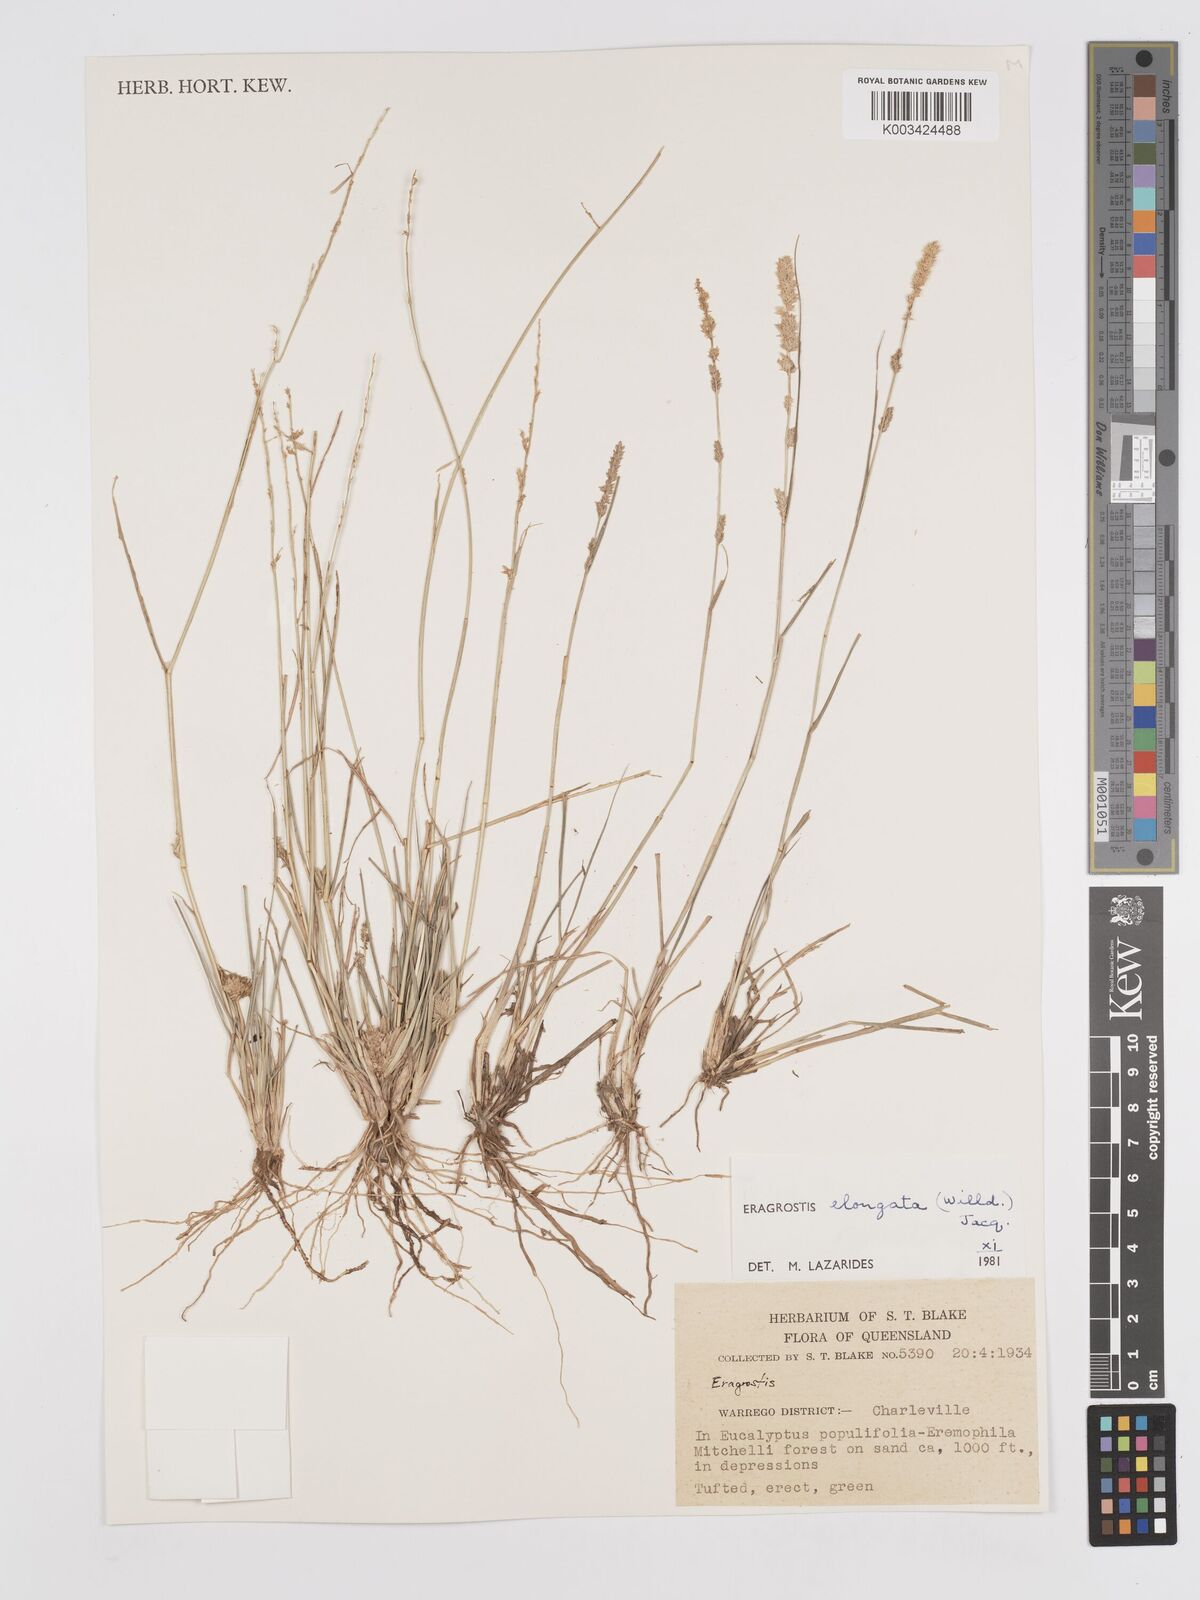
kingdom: Plantae
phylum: Tracheophyta
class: Liliopsida
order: Poales
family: Poaceae
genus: Eragrostis
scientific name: Eragrostis elongata
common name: Long lovegrass
